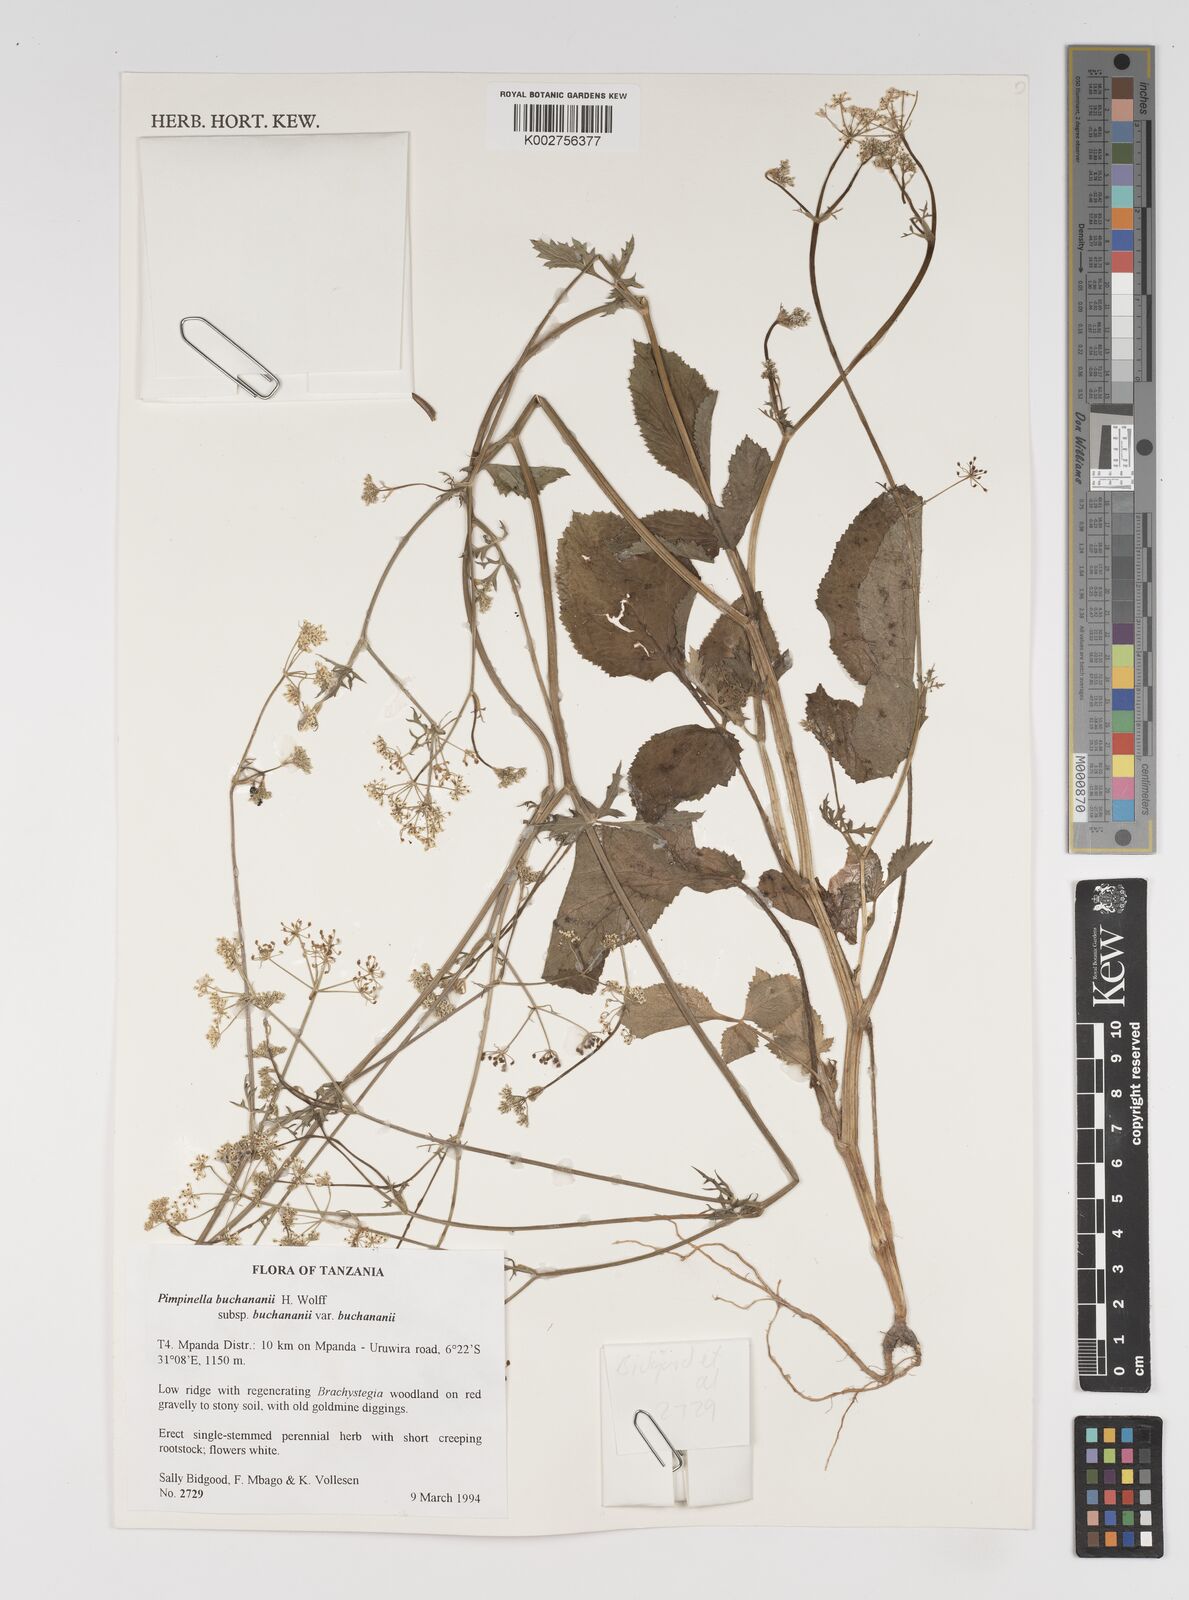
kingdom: Plantae
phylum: Tracheophyta
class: Magnoliopsida
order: Apiales
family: Apiaceae
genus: Pimpinella
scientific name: Pimpinella buchananii
